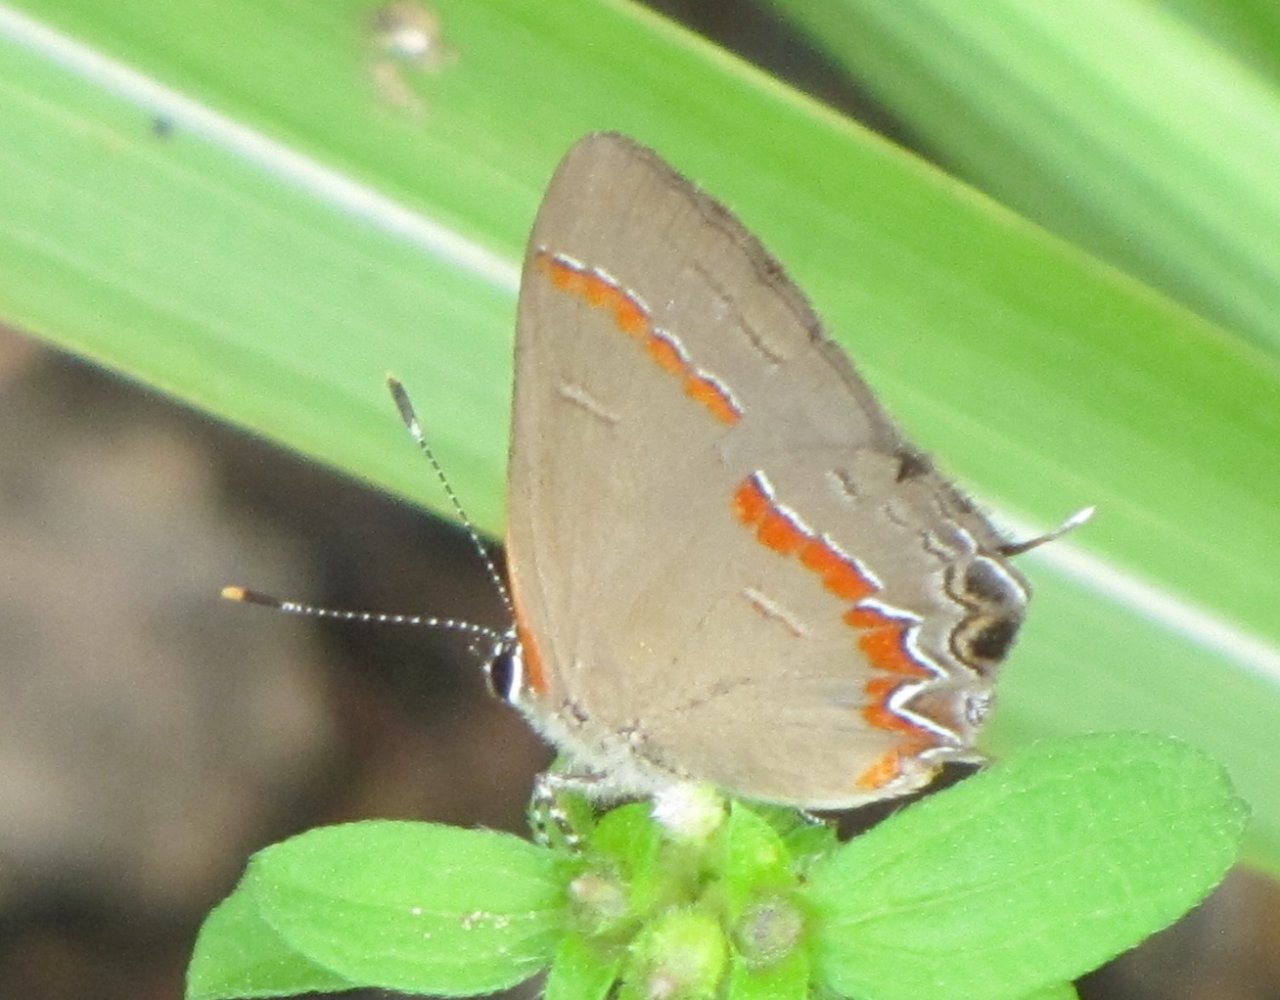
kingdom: Animalia
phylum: Arthropoda
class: Insecta
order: Lepidoptera
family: Lycaenidae
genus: Calycopis
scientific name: Calycopis cecrops
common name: Red-banded Hairstreak
